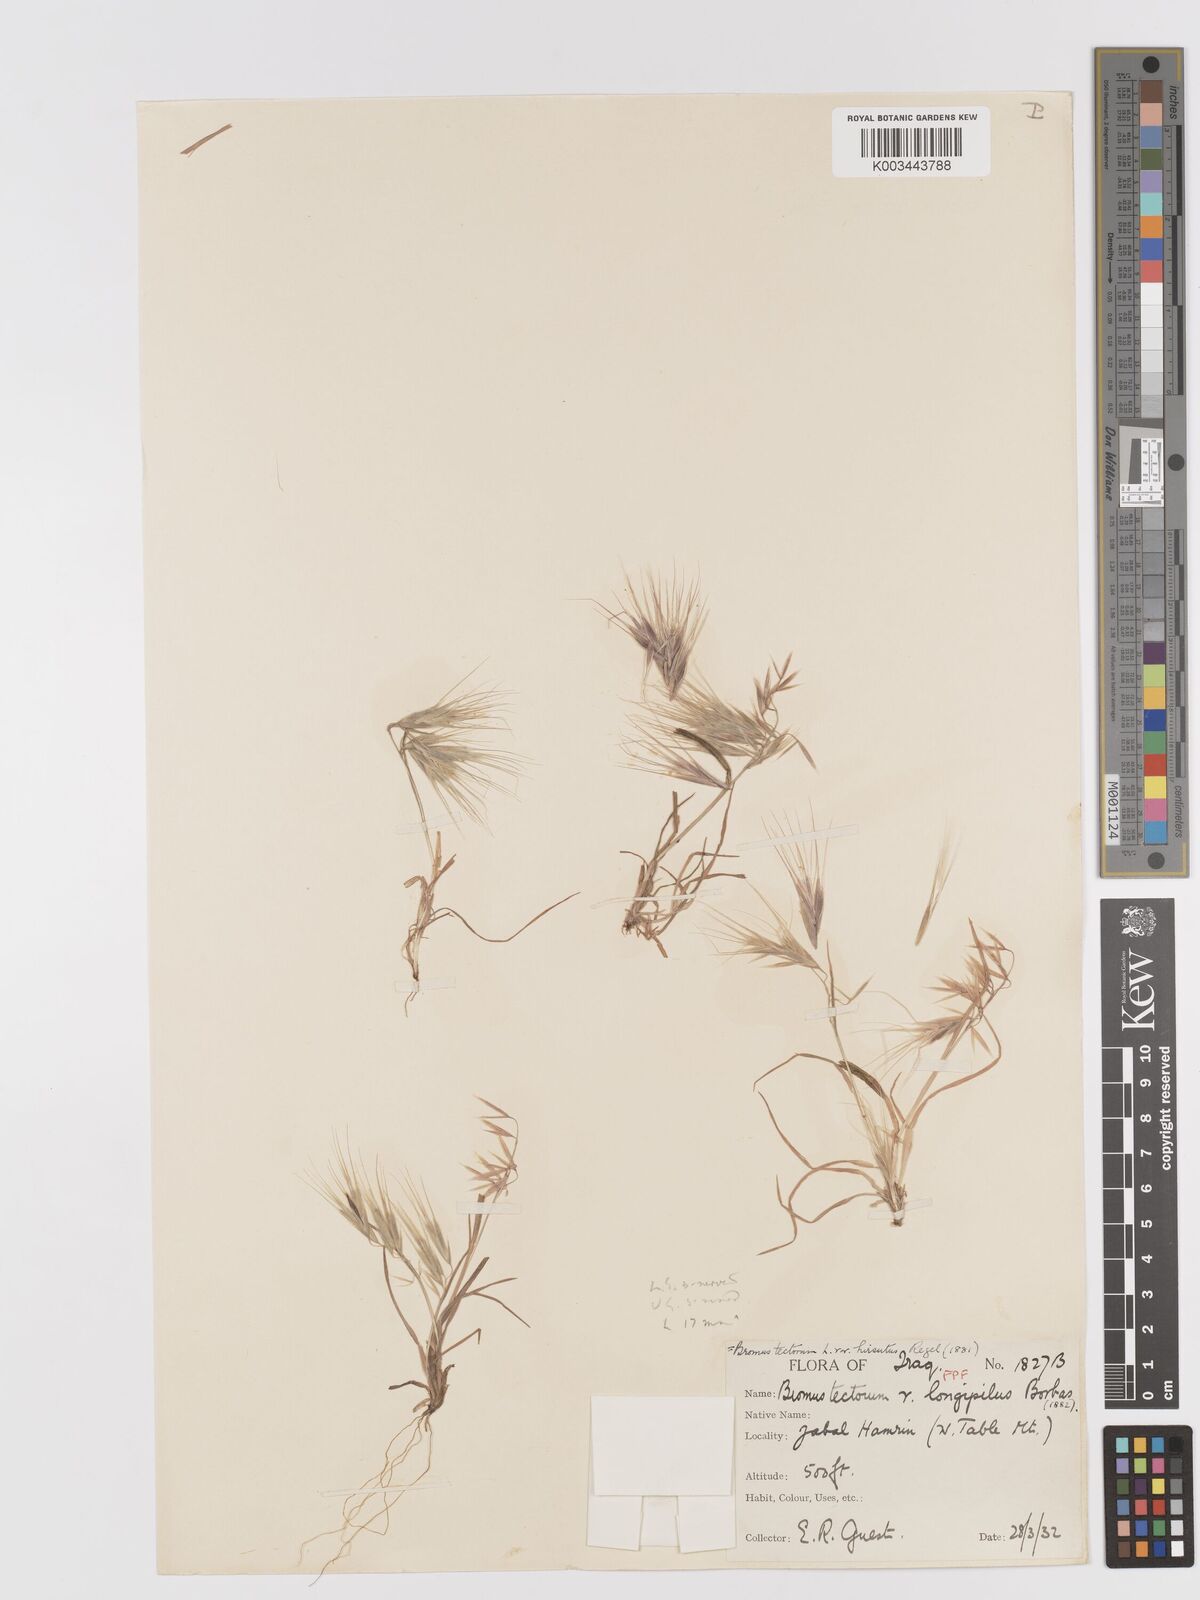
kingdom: Plantae
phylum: Tracheophyta
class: Liliopsida
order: Poales
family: Poaceae
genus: Bromus
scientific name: Bromus tectorum
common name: Cheatgrass
